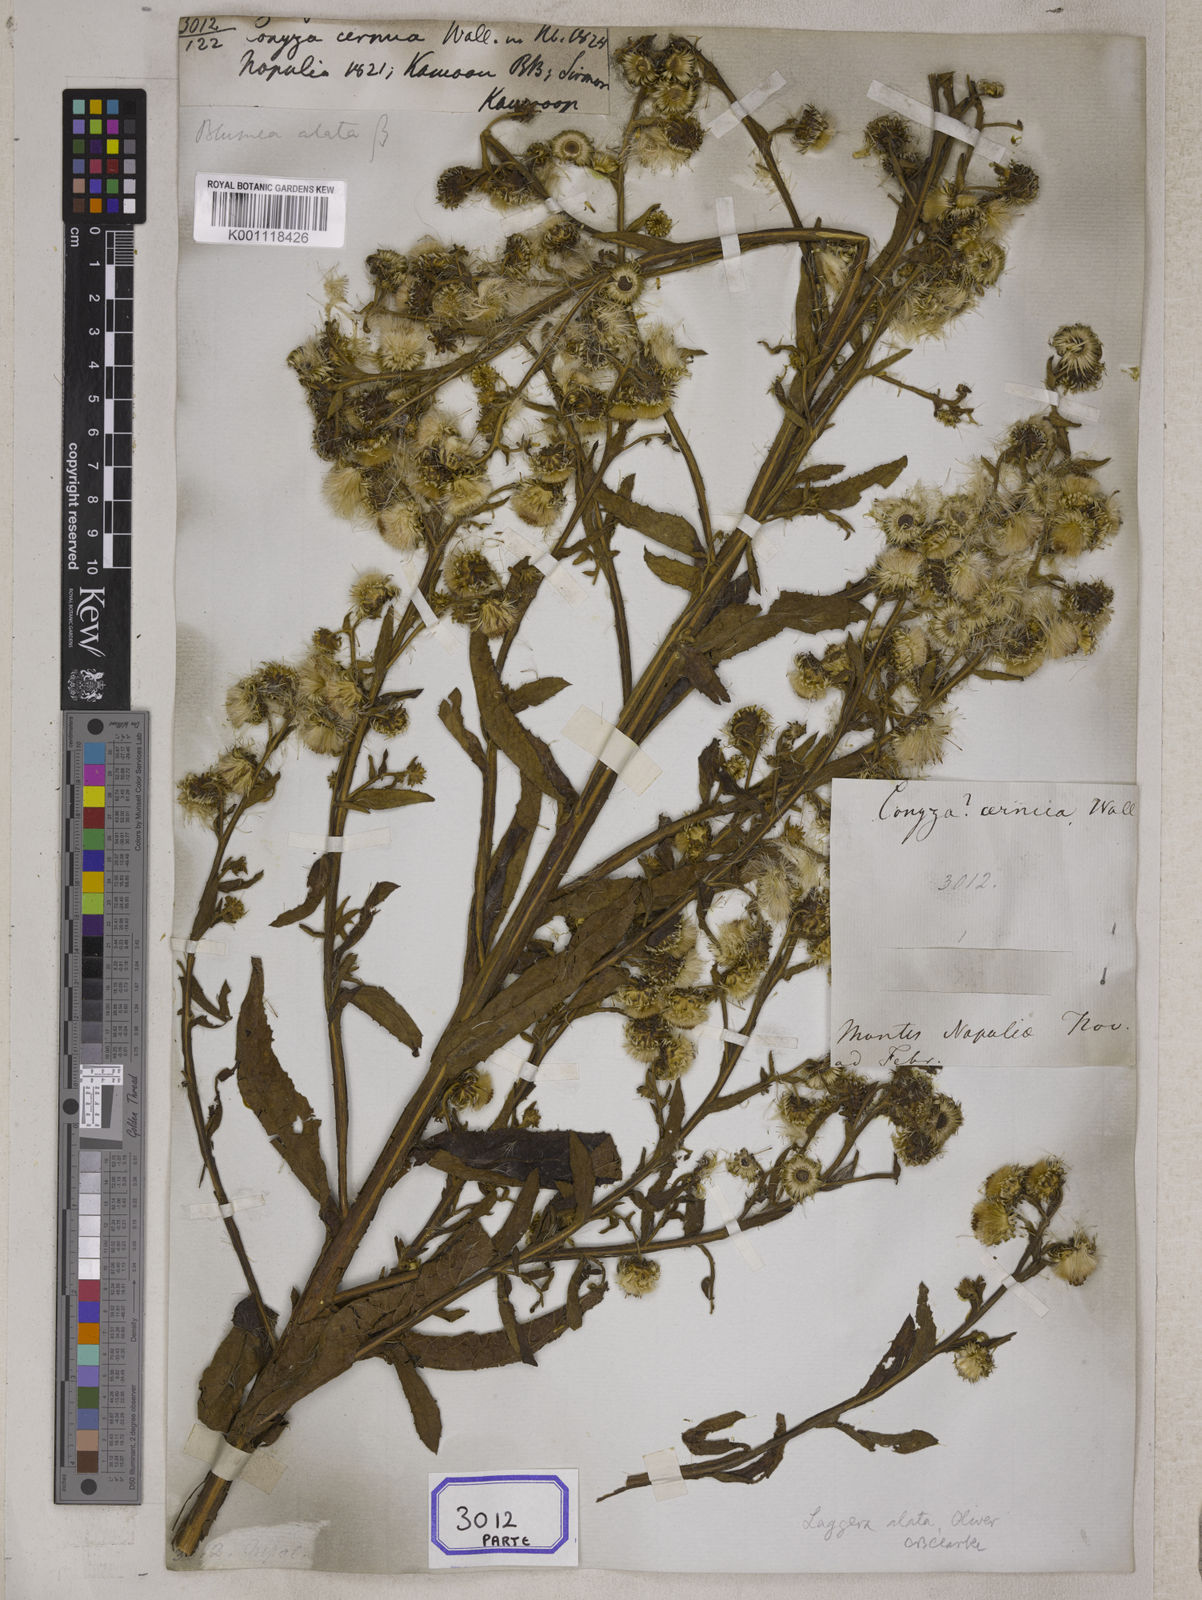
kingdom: Plantae
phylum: Tracheophyta
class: Magnoliopsida
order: Asterales
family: Asteraceae
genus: Erigeron
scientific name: Erigeron Conyza cernua
